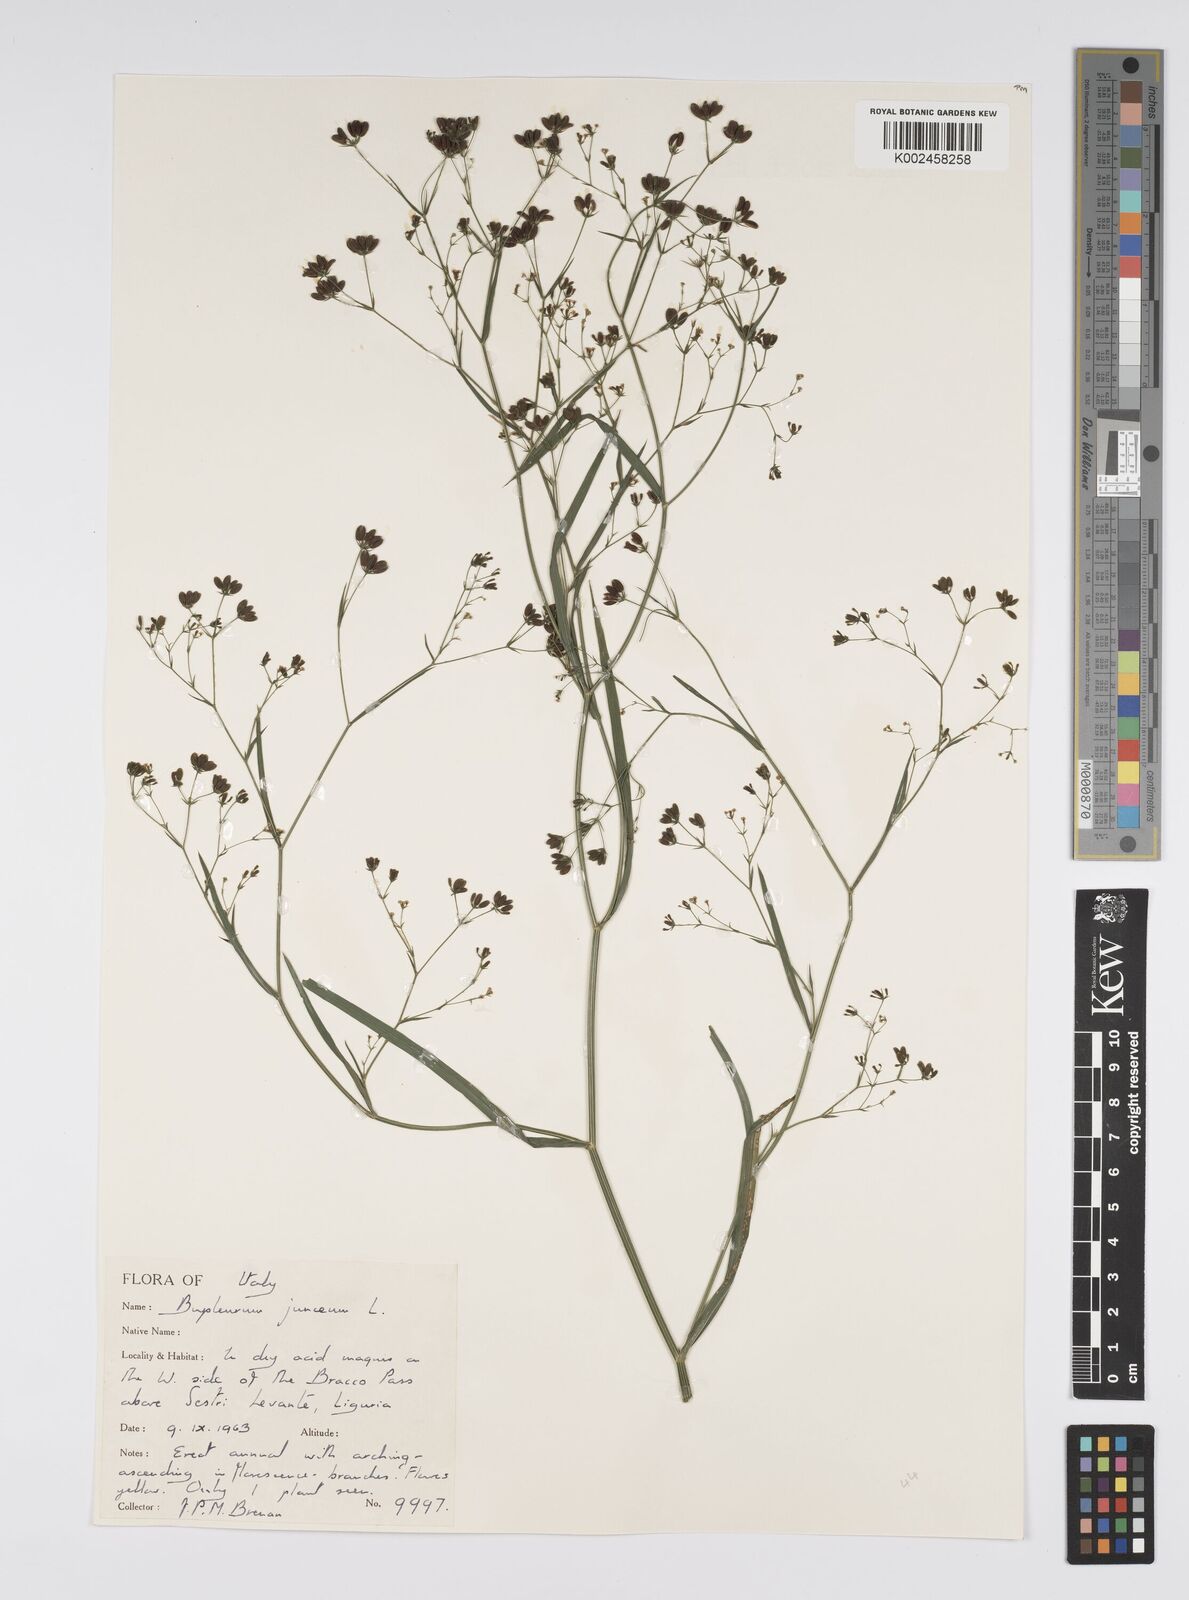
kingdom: Plantae
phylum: Tracheophyta
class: Magnoliopsida
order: Apiales
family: Apiaceae
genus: Bupleurum
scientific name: Bupleurum praealtum
